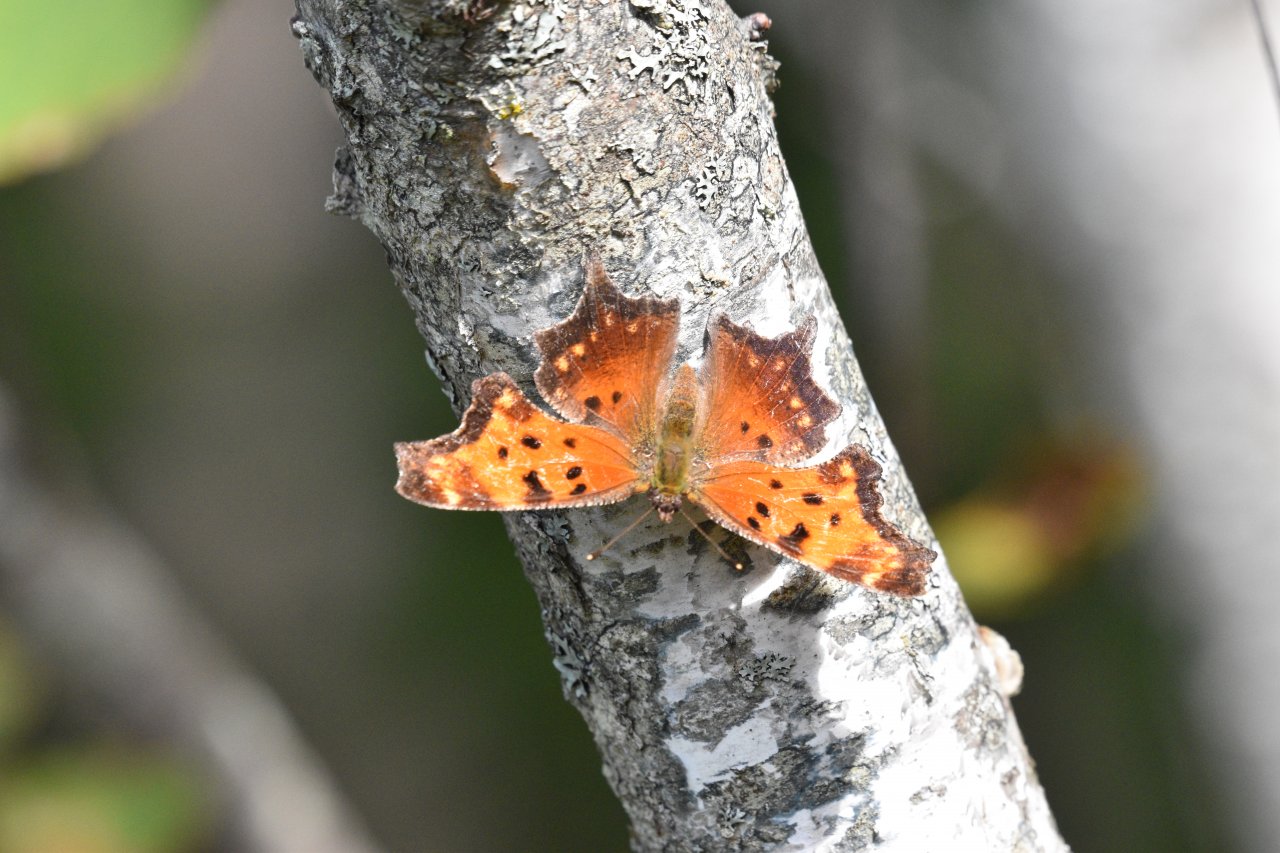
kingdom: Animalia
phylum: Arthropoda
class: Insecta
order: Lepidoptera
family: Nymphalidae
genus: Polygonia
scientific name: Polygonia progne
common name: Gray Comma
